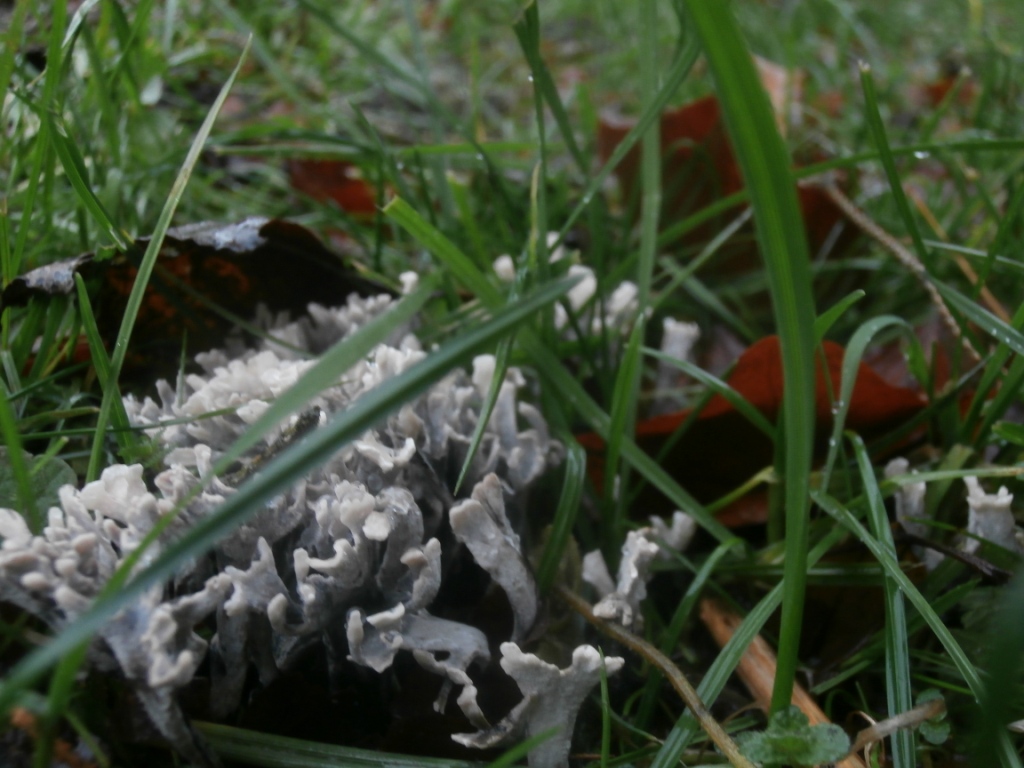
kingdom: Fungi
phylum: Ascomycota
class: Sordariomycetes
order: Xylariales
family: Xylariaceae
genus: Xylaria
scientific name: Xylaria hypoxylon
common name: grenet stødsvamp
